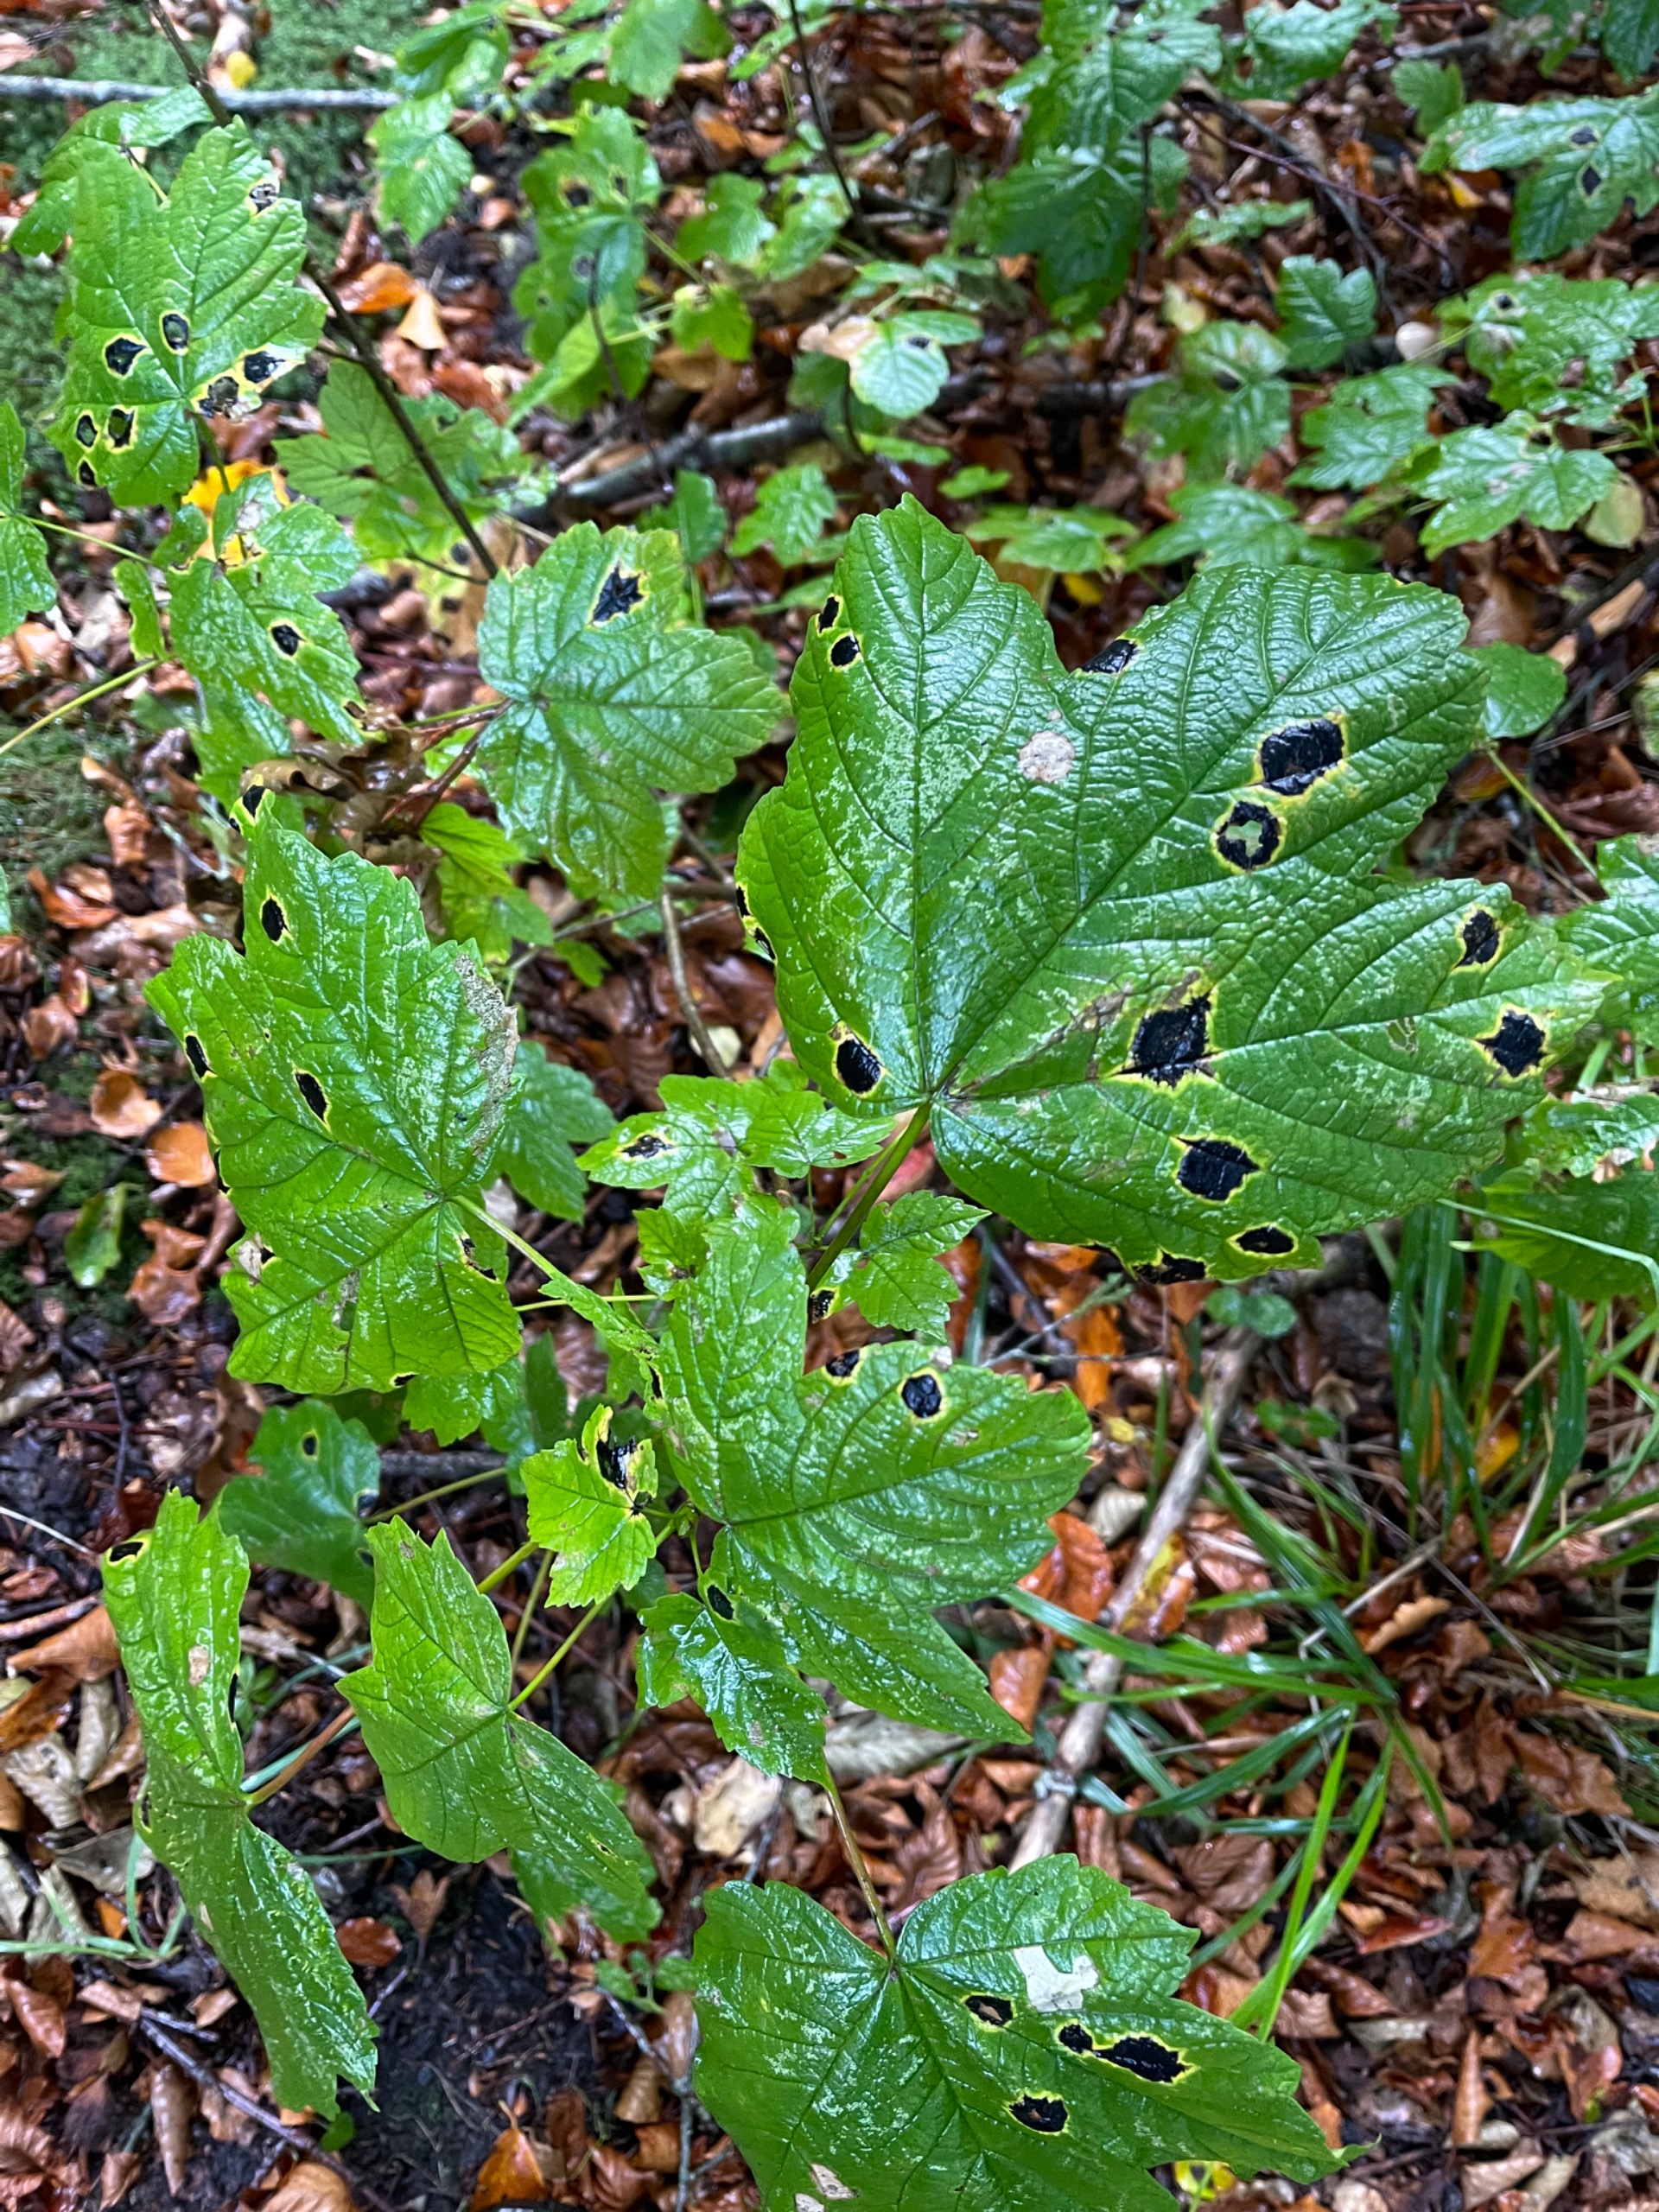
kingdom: Fungi
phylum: Ascomycota
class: Leotiomycetes
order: Rhytismatales
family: Rhytismataceae
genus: Rhytisma
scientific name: Rhytisma acerinum
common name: Ahorn-rynkeplet
